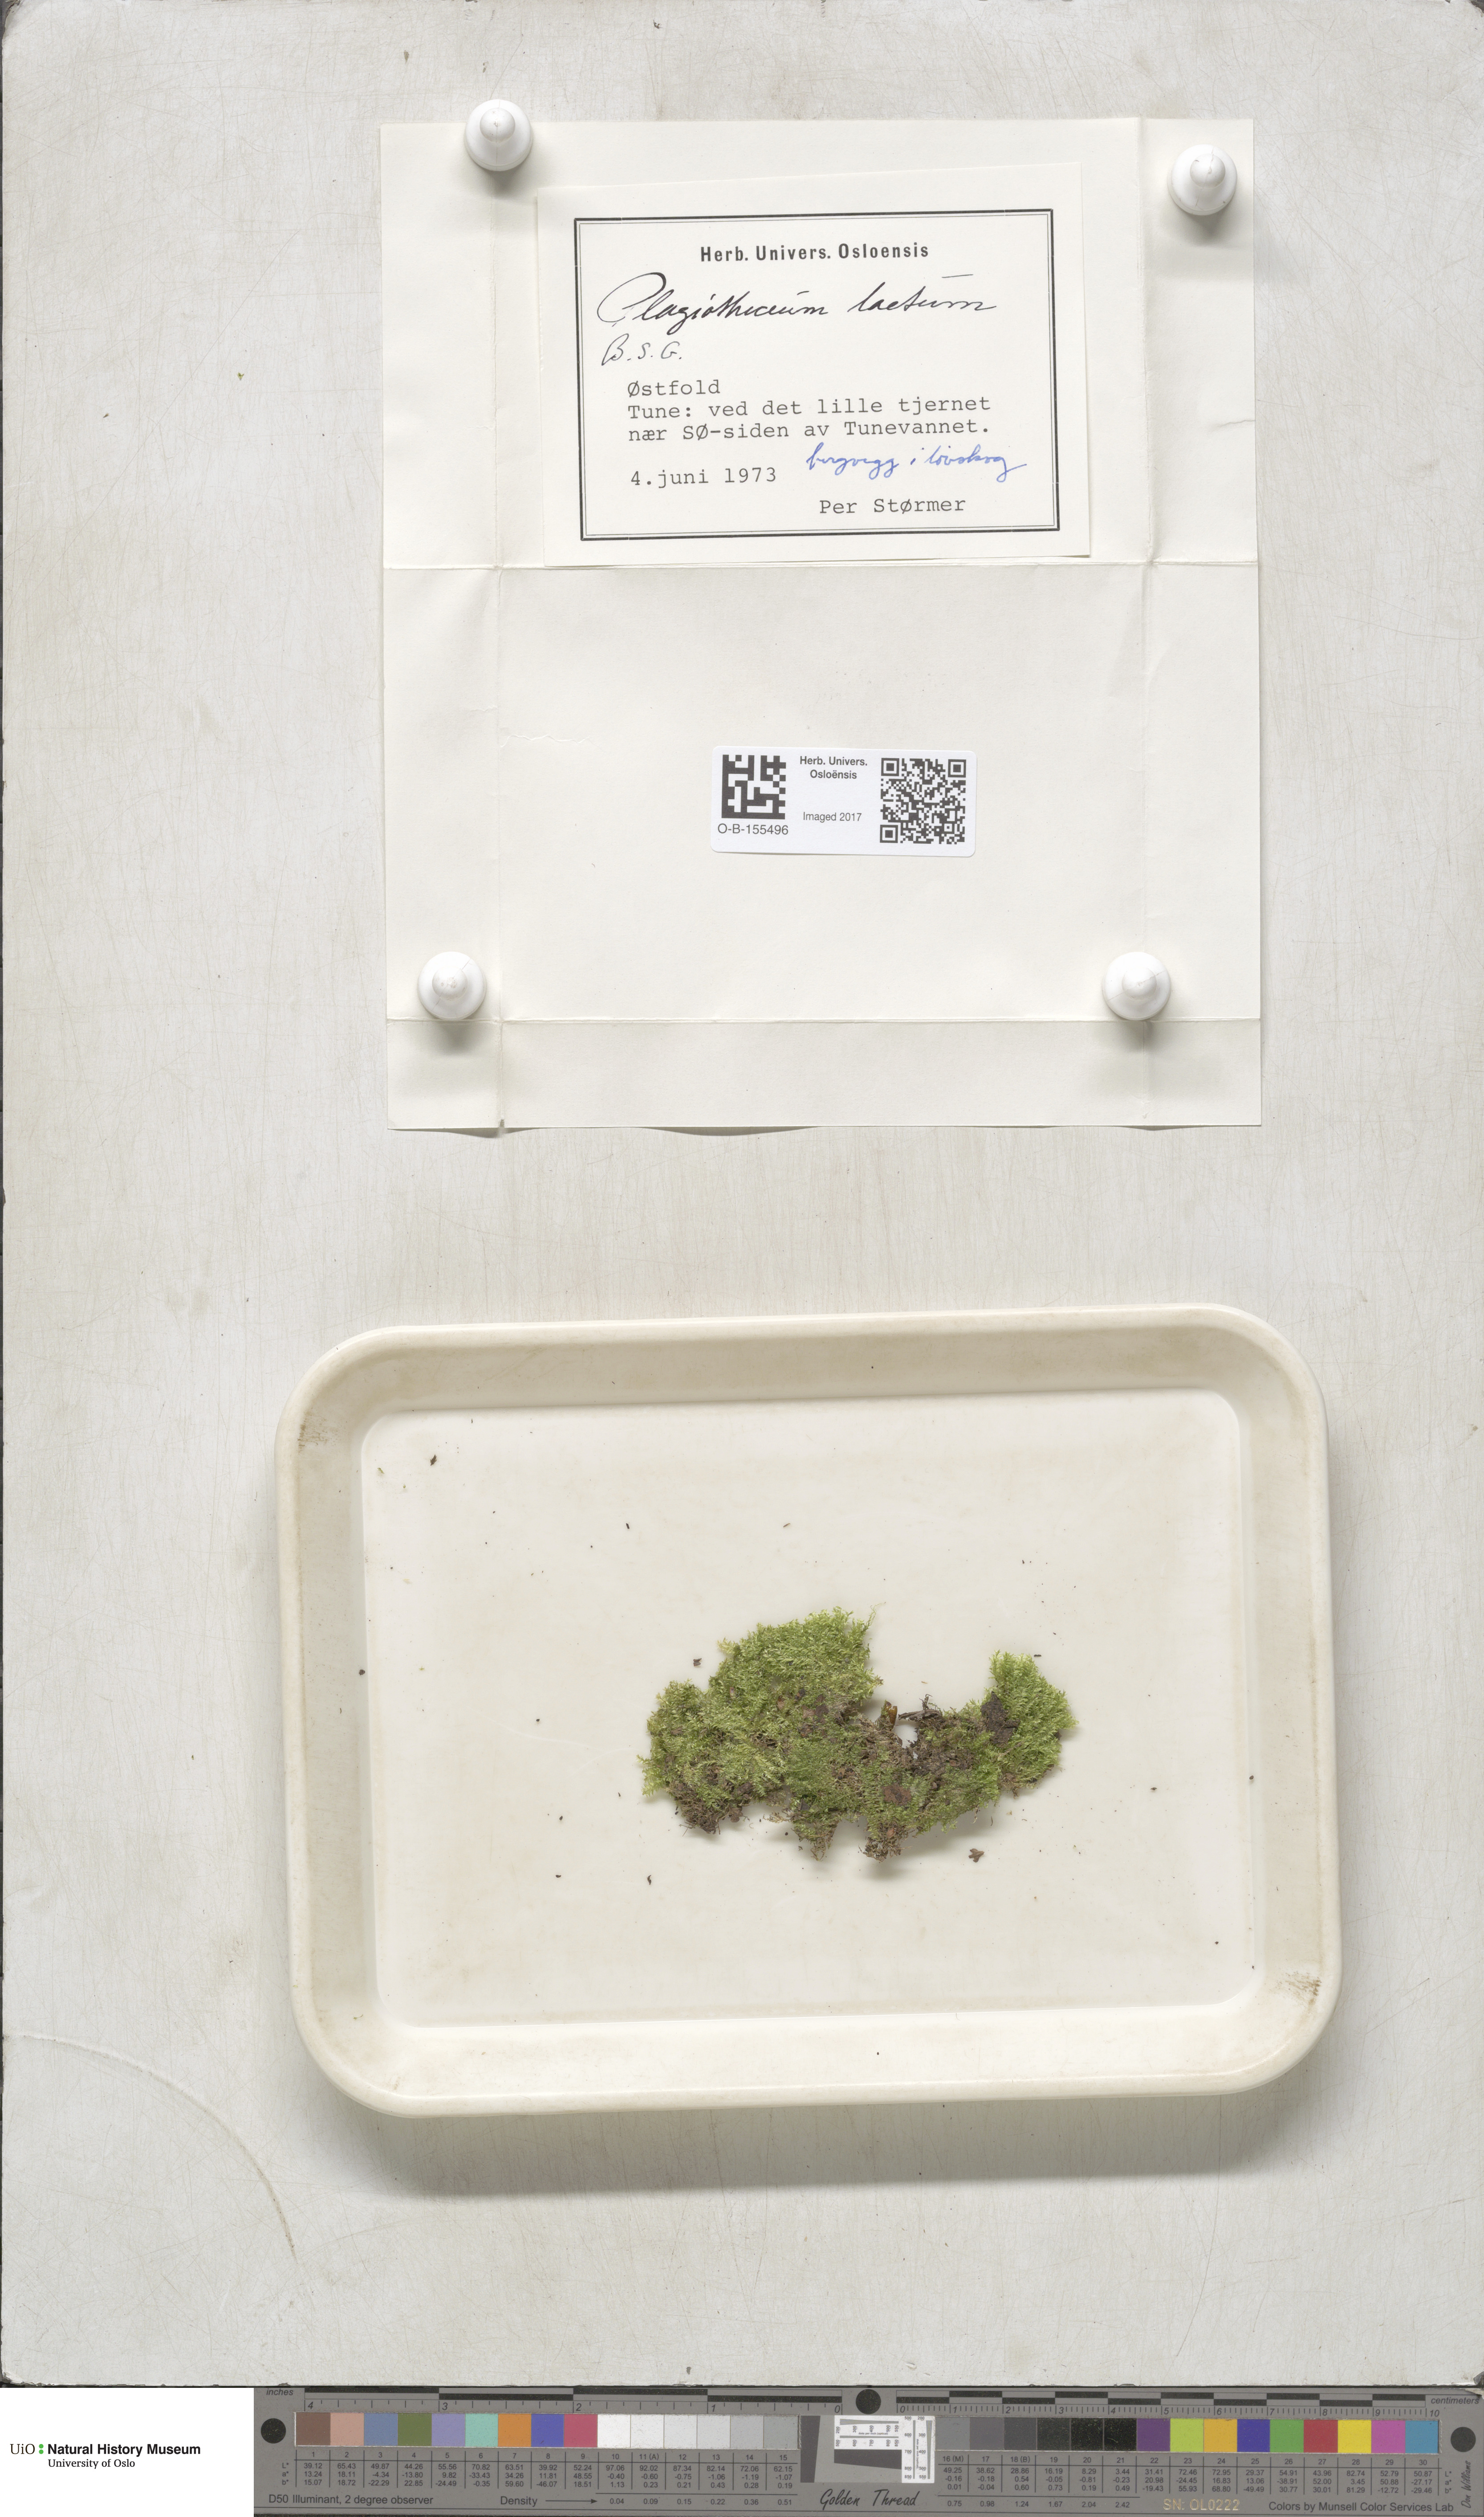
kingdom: Plantae
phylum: Bryophyta
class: Bryopsida
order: Hypnales
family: Plagiotheciaceae
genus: Plagiothecium
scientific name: Plagiothecium laetum
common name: Bright silk moss
